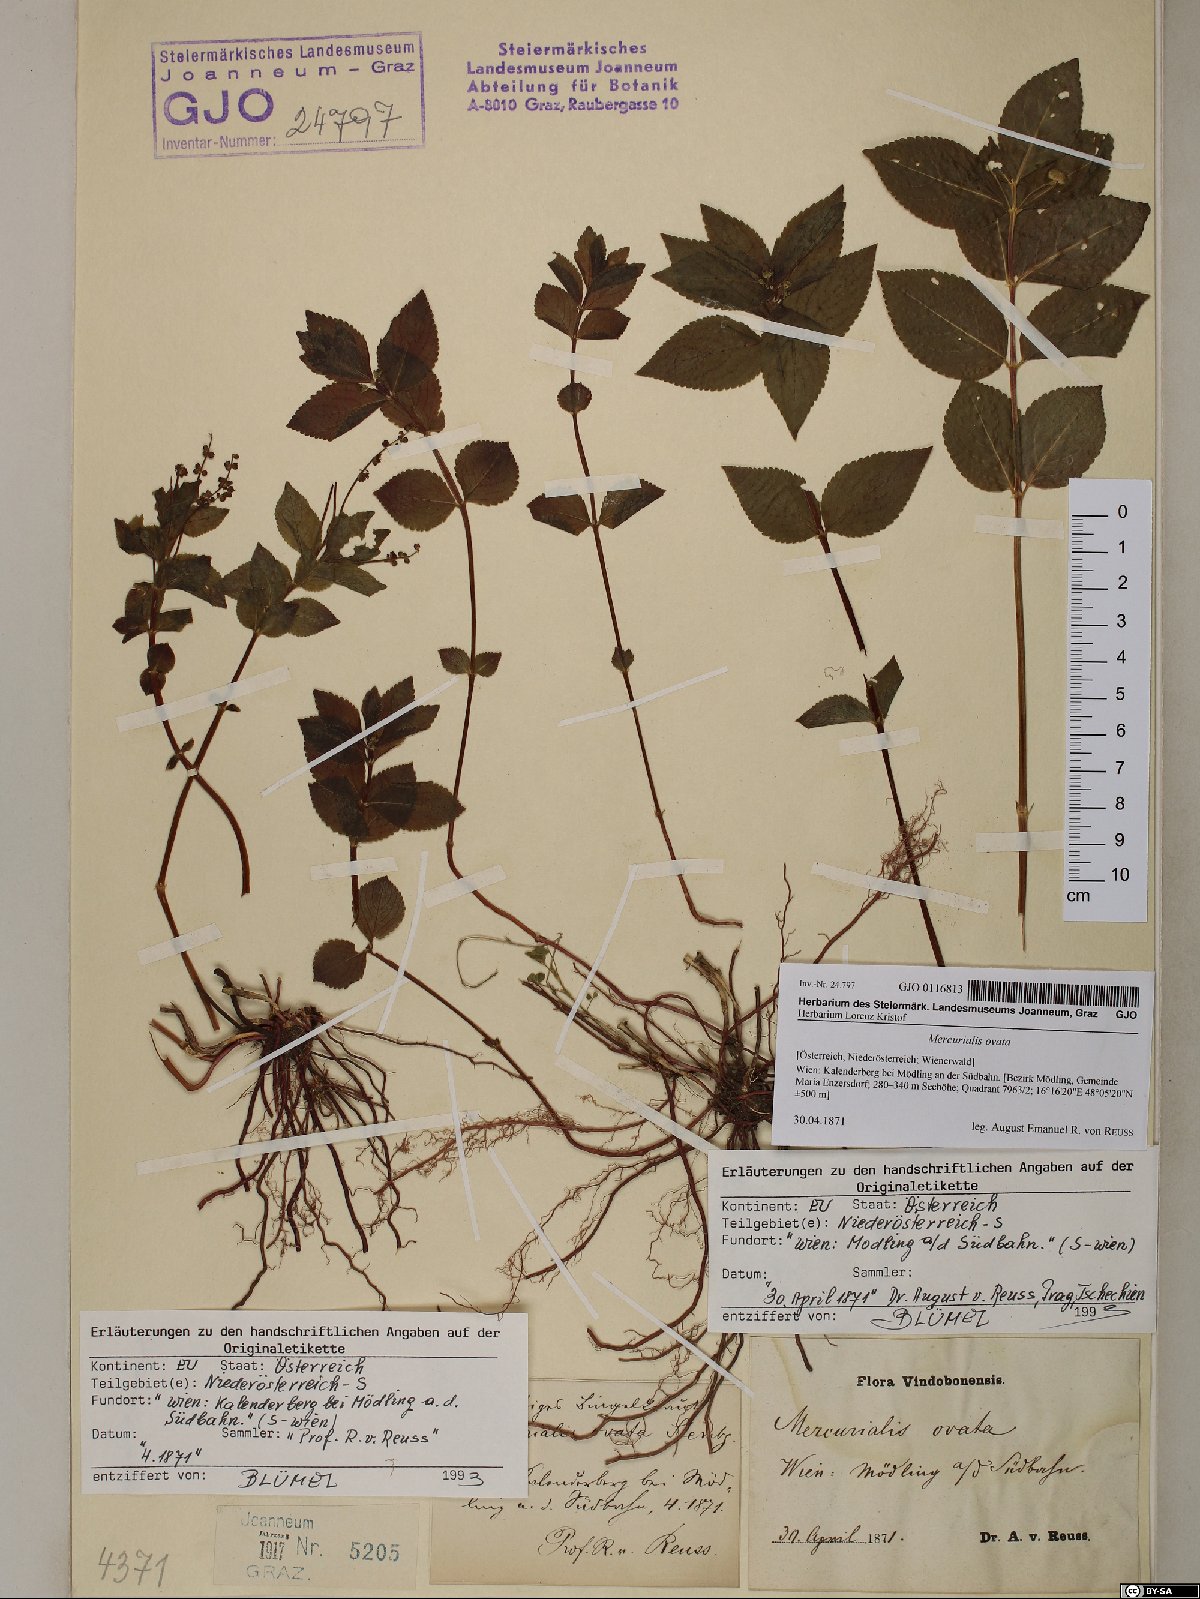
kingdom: Plantae
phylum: Tracheophyta
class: Magnoliopsida
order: Malpighiales
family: Euphorbiaceae
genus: Mercurialis
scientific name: Mercurialis ovata
